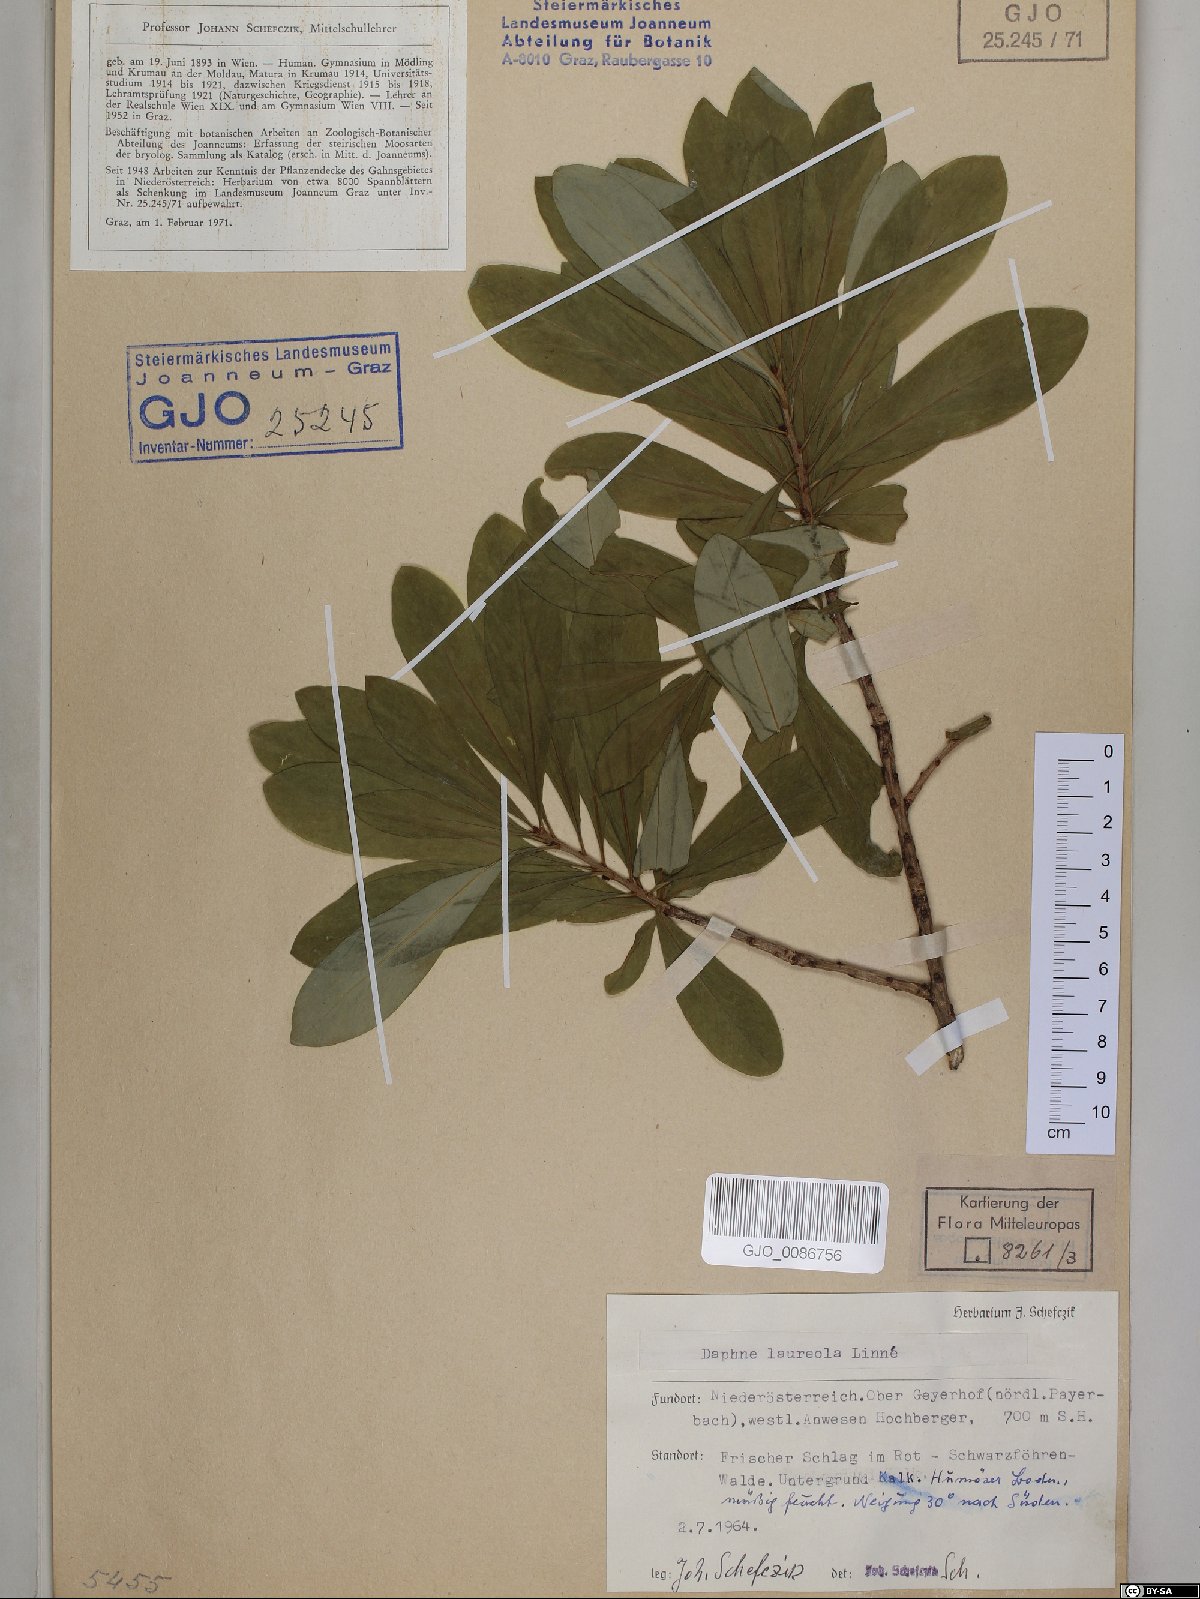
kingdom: Plantae
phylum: Tracheophyta
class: Magnoliopsida
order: Malvales
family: Thymelaeaceae
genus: Daphne
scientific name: Daphne laureola
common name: Spurge-laurel
